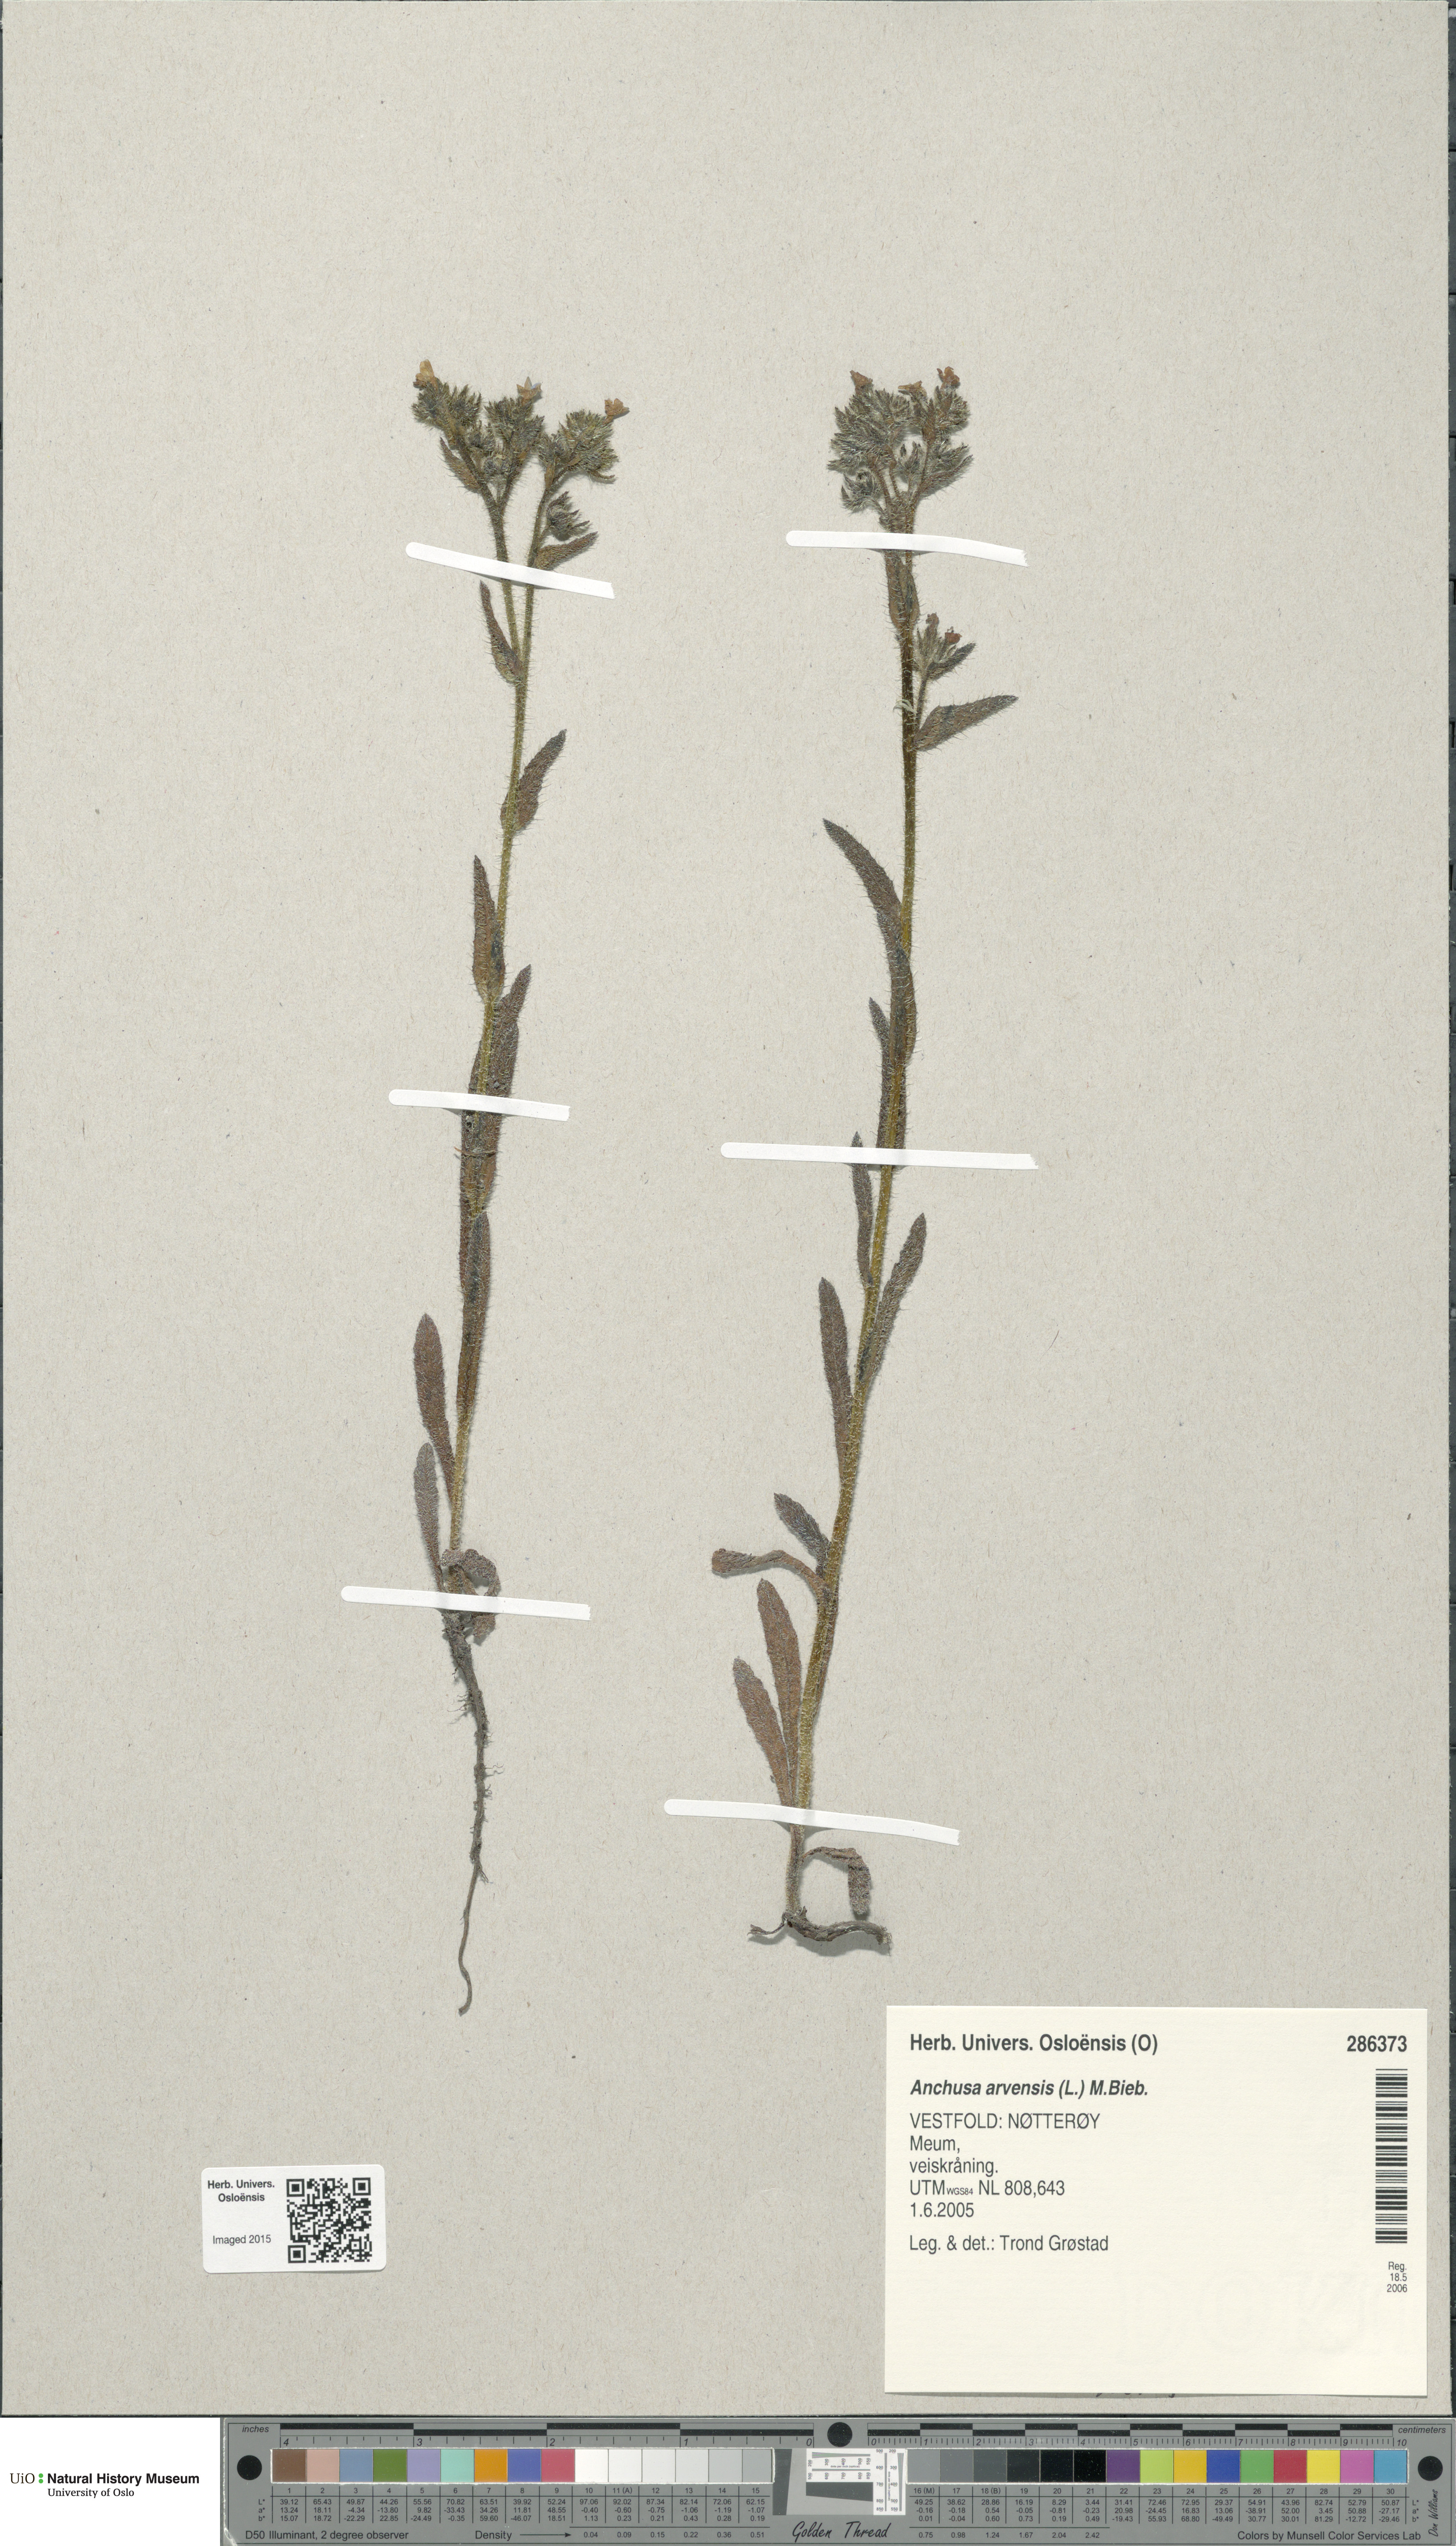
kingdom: Plantae
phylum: Tracheophyta
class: Magnoliopsida
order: Boraginales
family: Boraginaceae
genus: Lycopsis
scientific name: Lycopsis arvensis
